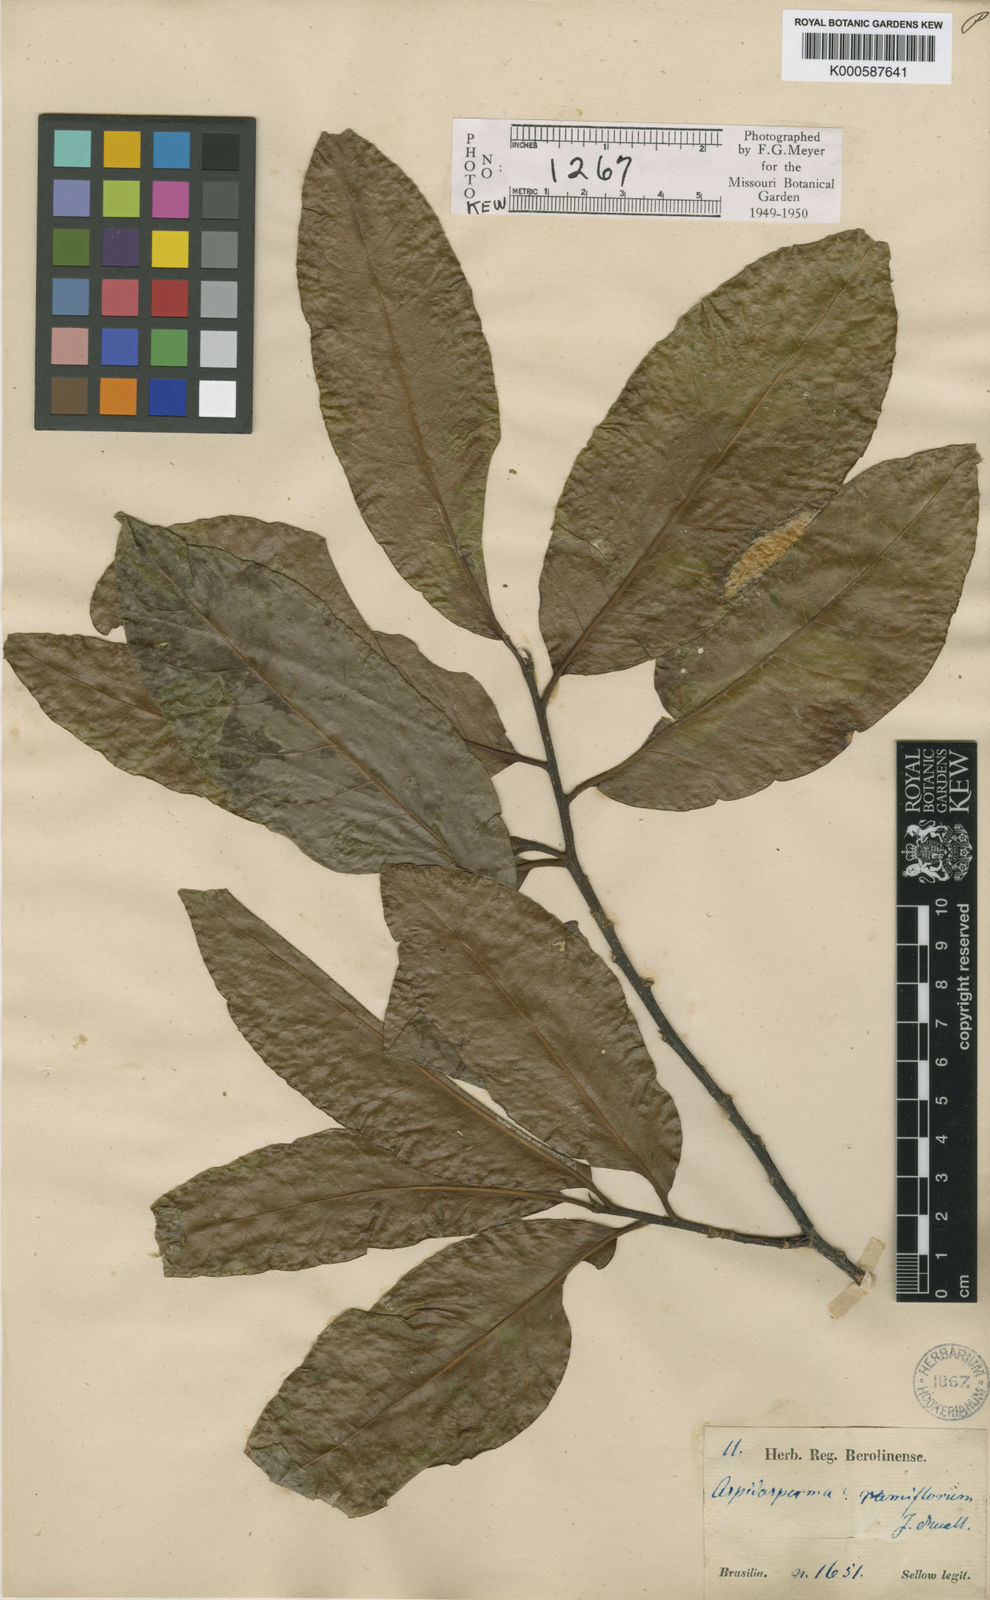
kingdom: Plantae
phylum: Tracheophyta
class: Magnoliopsida
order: Gentianales
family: Apocynaceae
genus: Aspidosperma
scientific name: Aspidosperma
